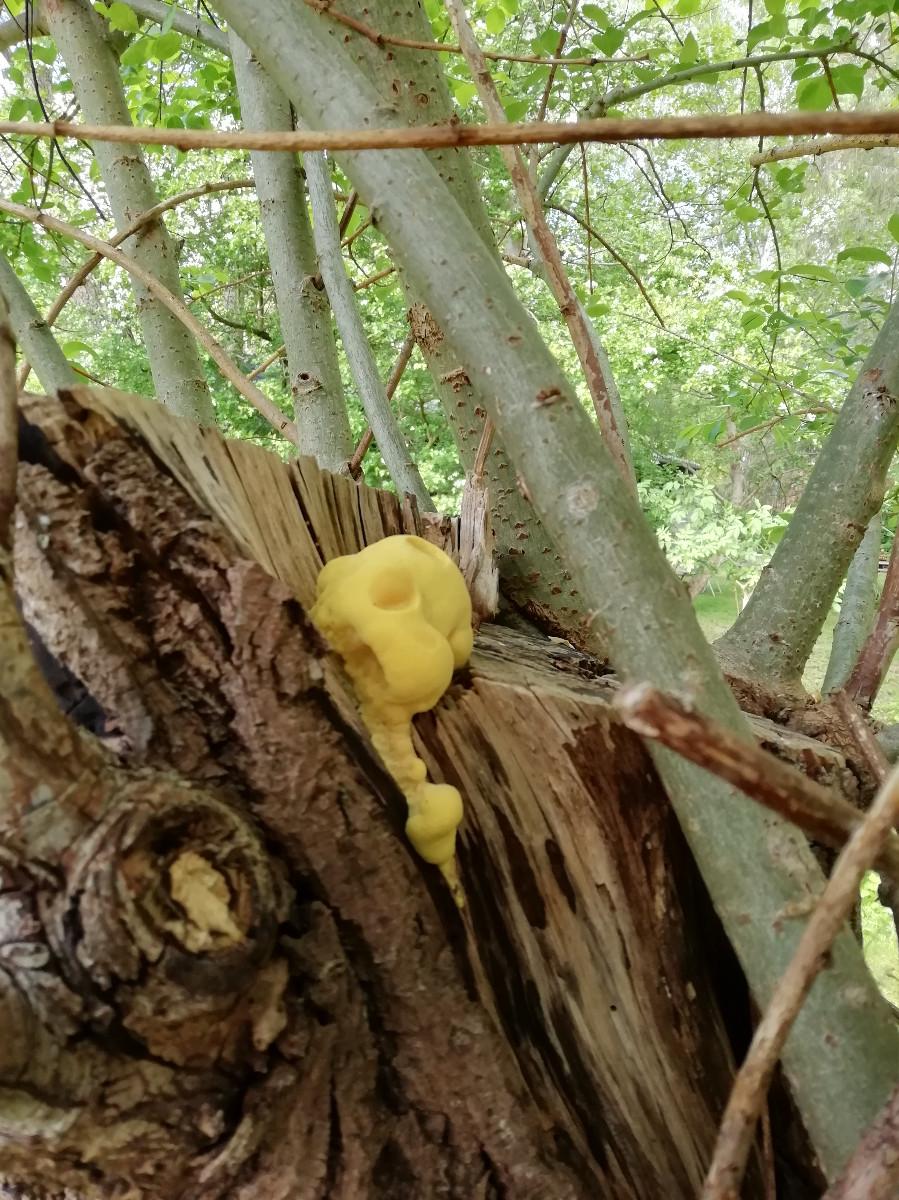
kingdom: Fungi
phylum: Basidiomycota
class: Agaricomycetes
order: Polyporales
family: Laetiporaceae
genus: Laetiporus
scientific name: Laetiporus sulphureus
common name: svovlporesvamp
